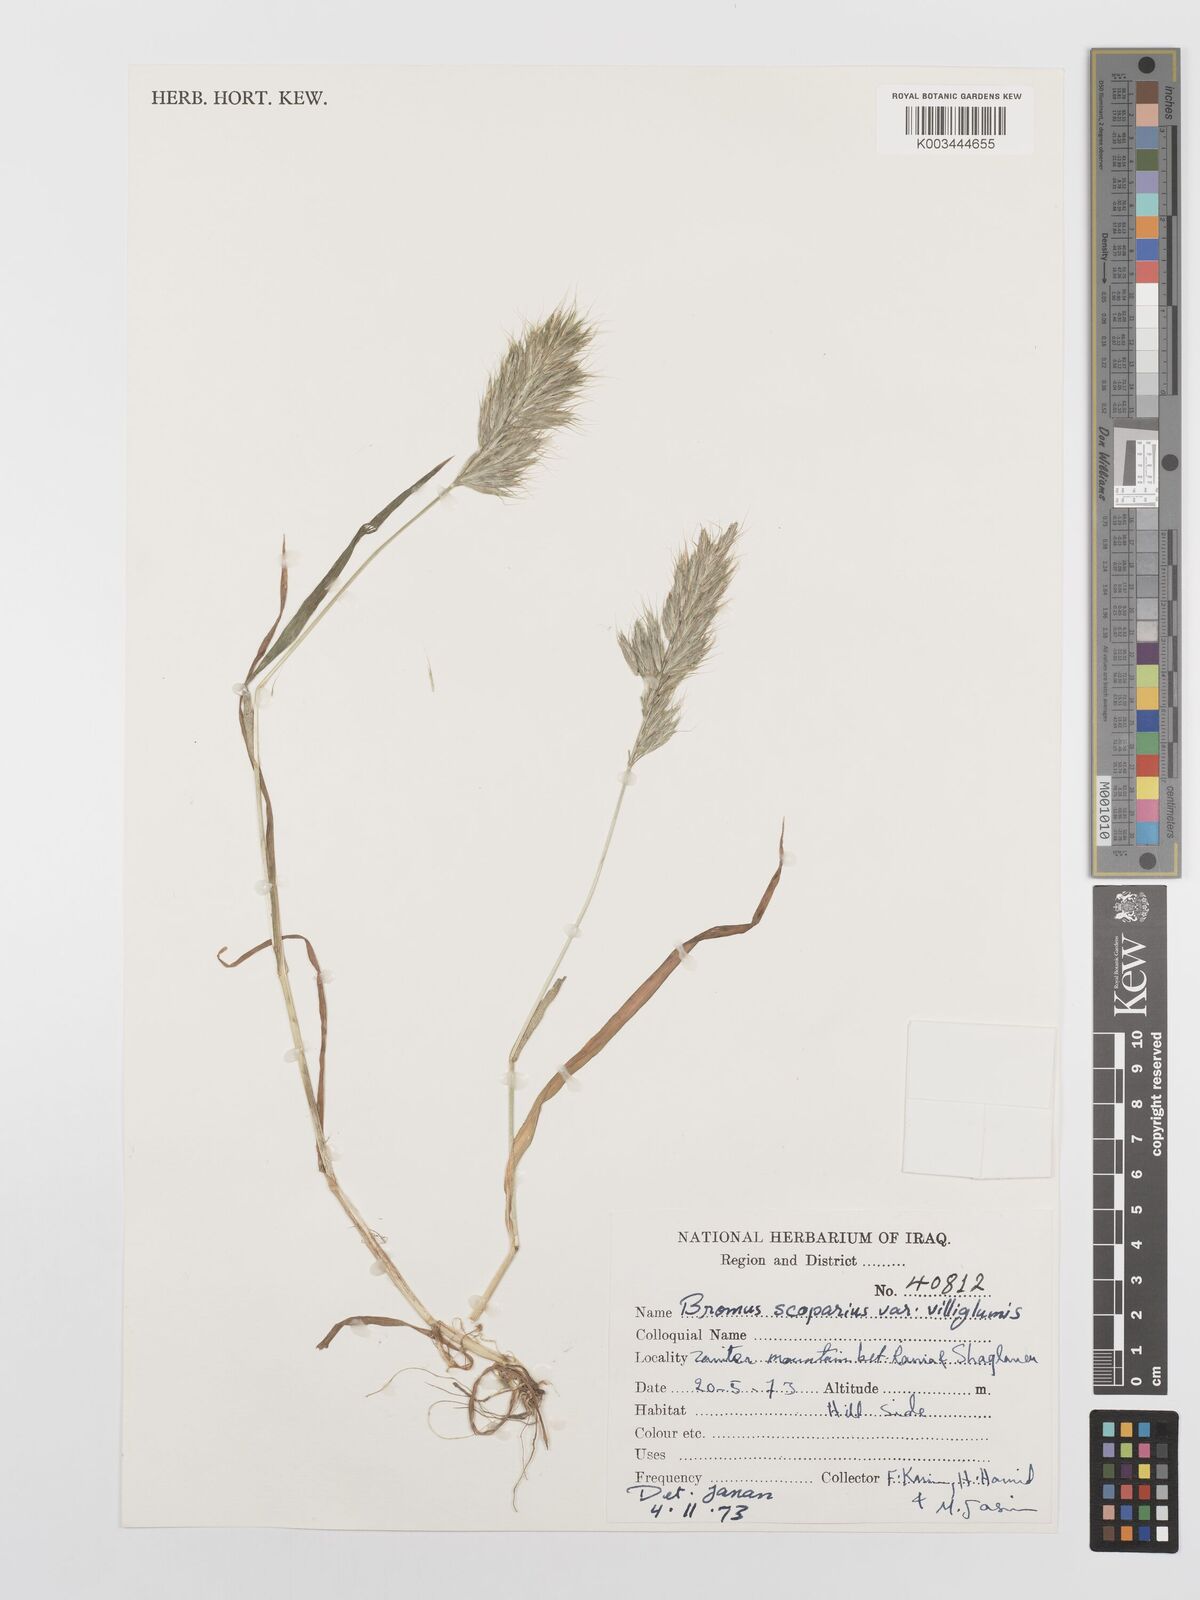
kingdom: Plantae
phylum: Tracheophyta
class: Liliopsida
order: Poales
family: Poaceae
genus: Bromus
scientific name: Bromus scoparius
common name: Broom brome
